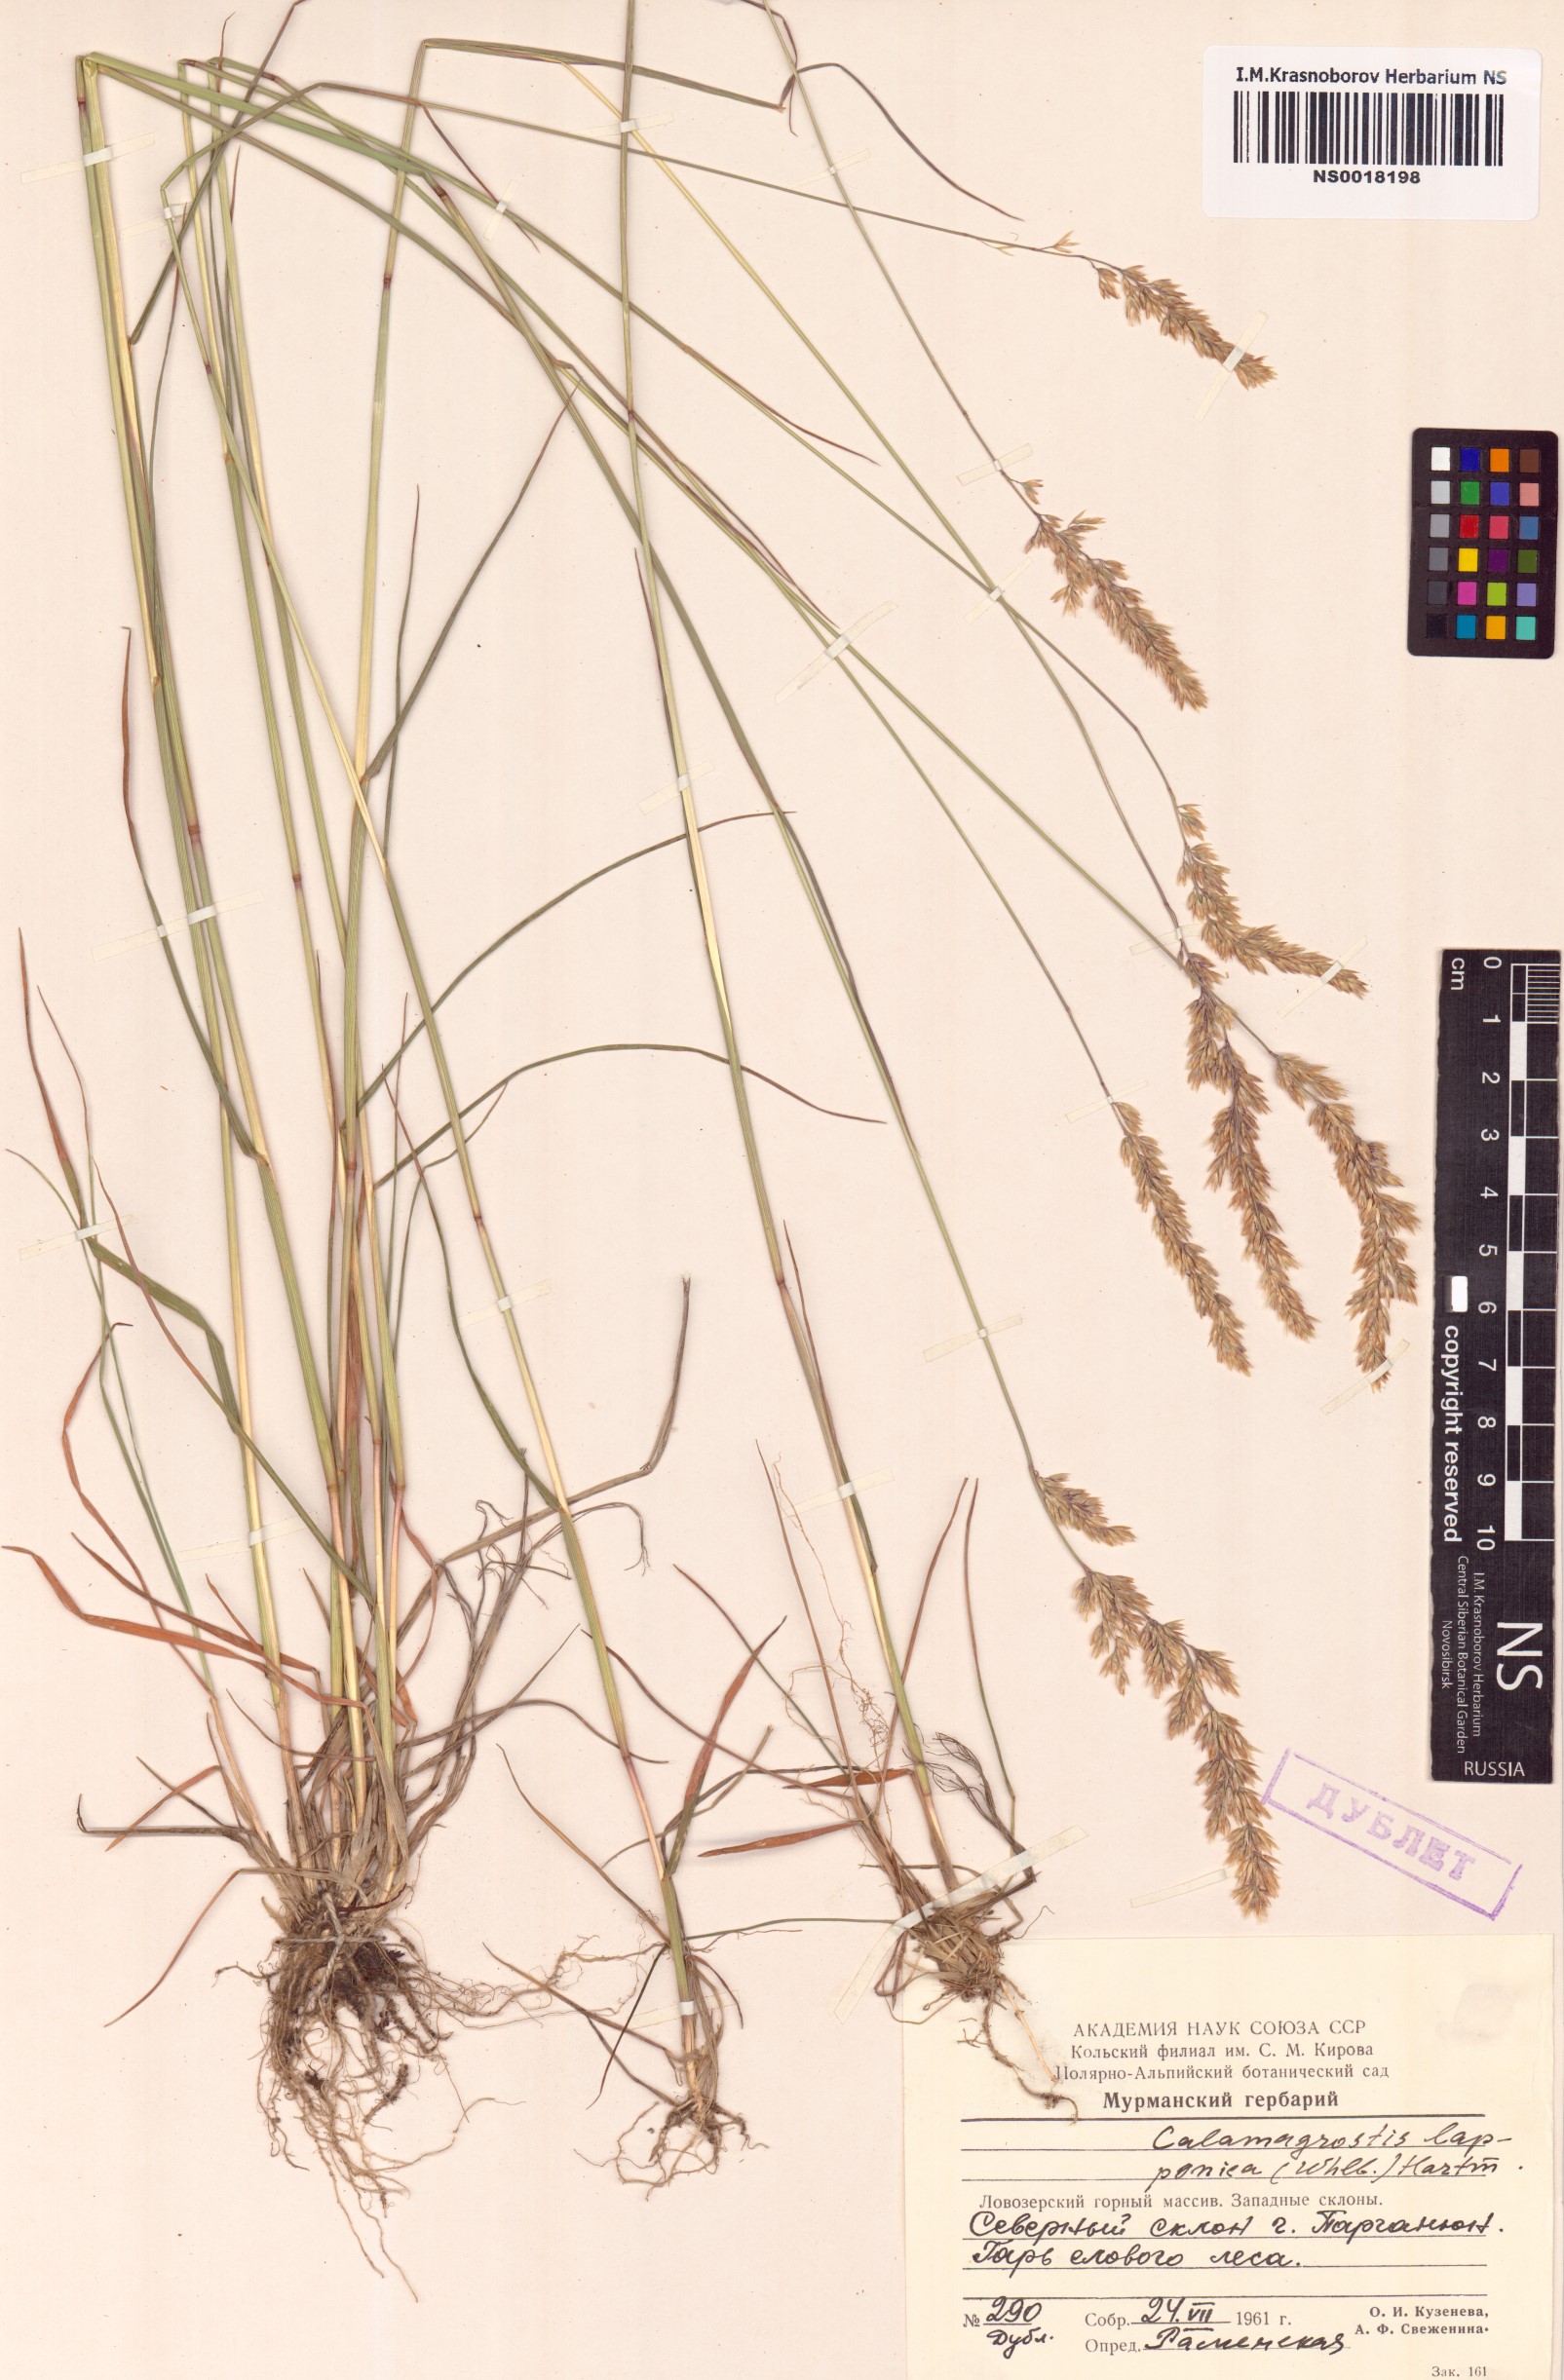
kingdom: Plantae
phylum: Tracheophyta
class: Liliopsida
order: Poales
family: Poaceae
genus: Calamagrostis
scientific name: Calamagrostis lapponica
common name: Lapland reedgrass
